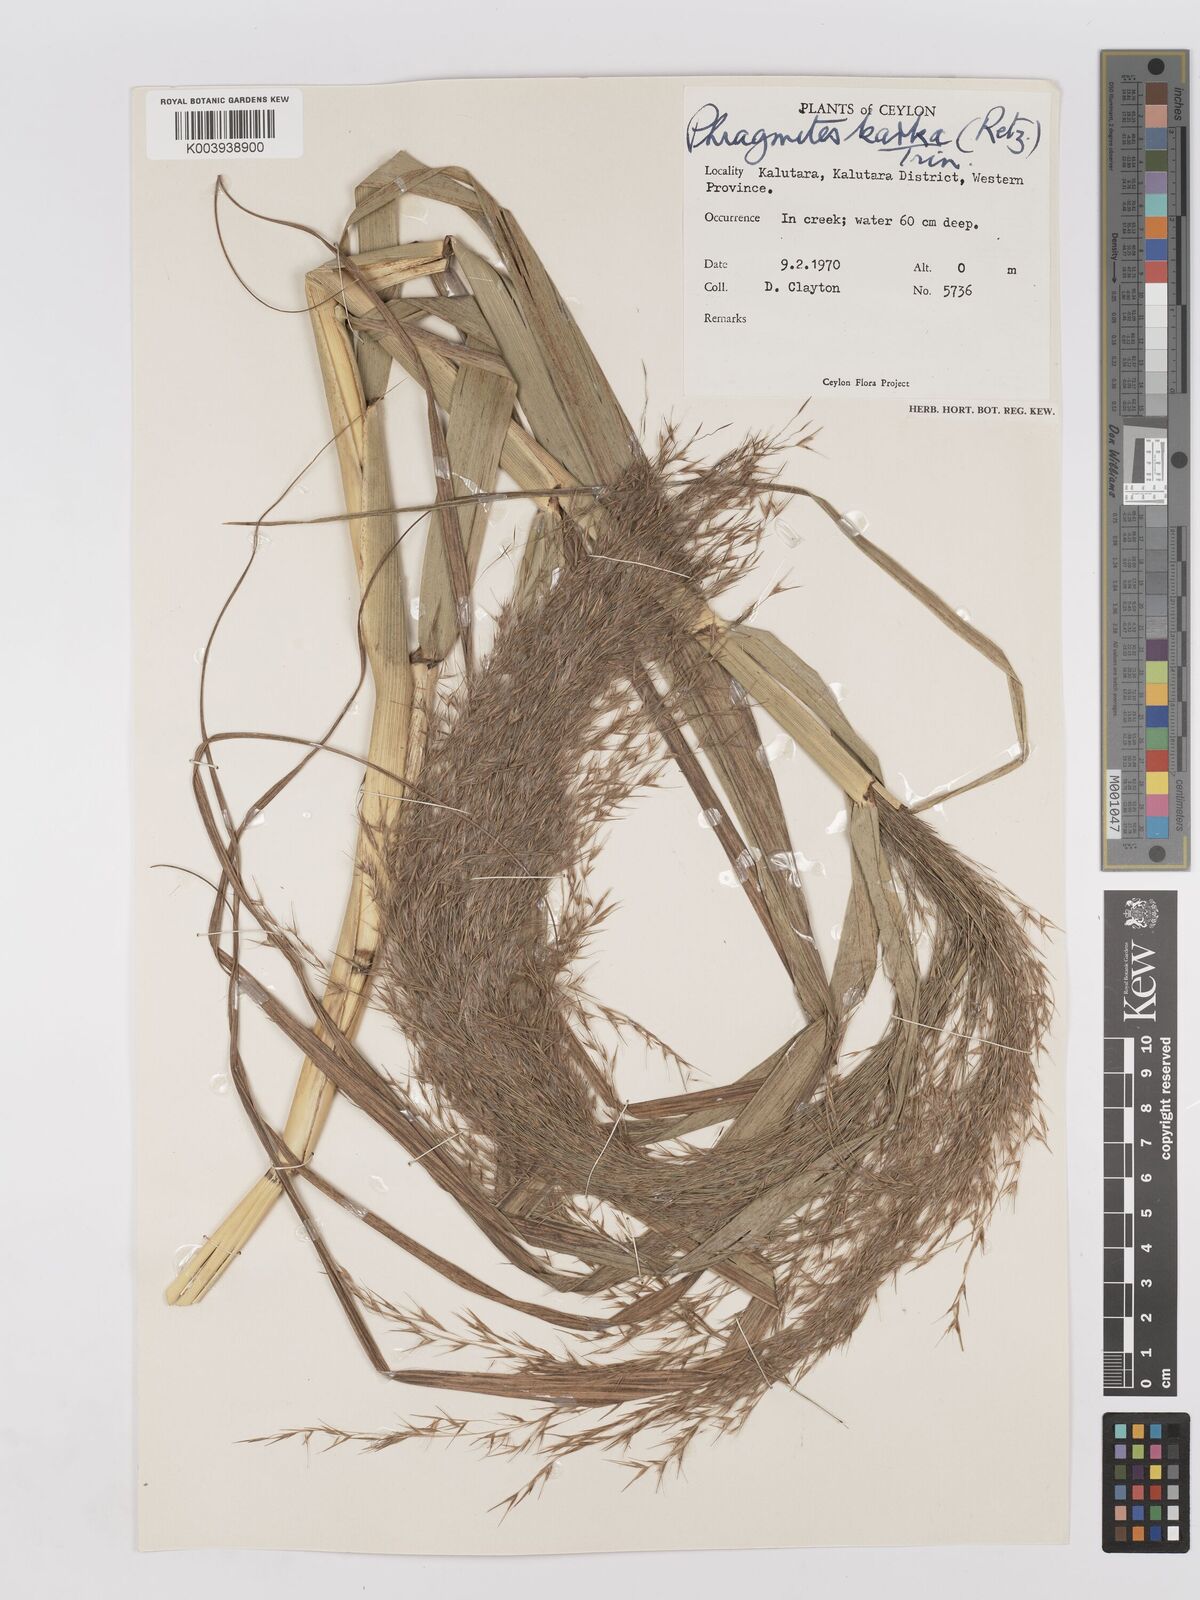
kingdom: Plantae
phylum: Tracheophyta
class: Liliopsida
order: Poales
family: Poaceae
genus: Phragmites
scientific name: Phragmites karka
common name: Tropical reed
